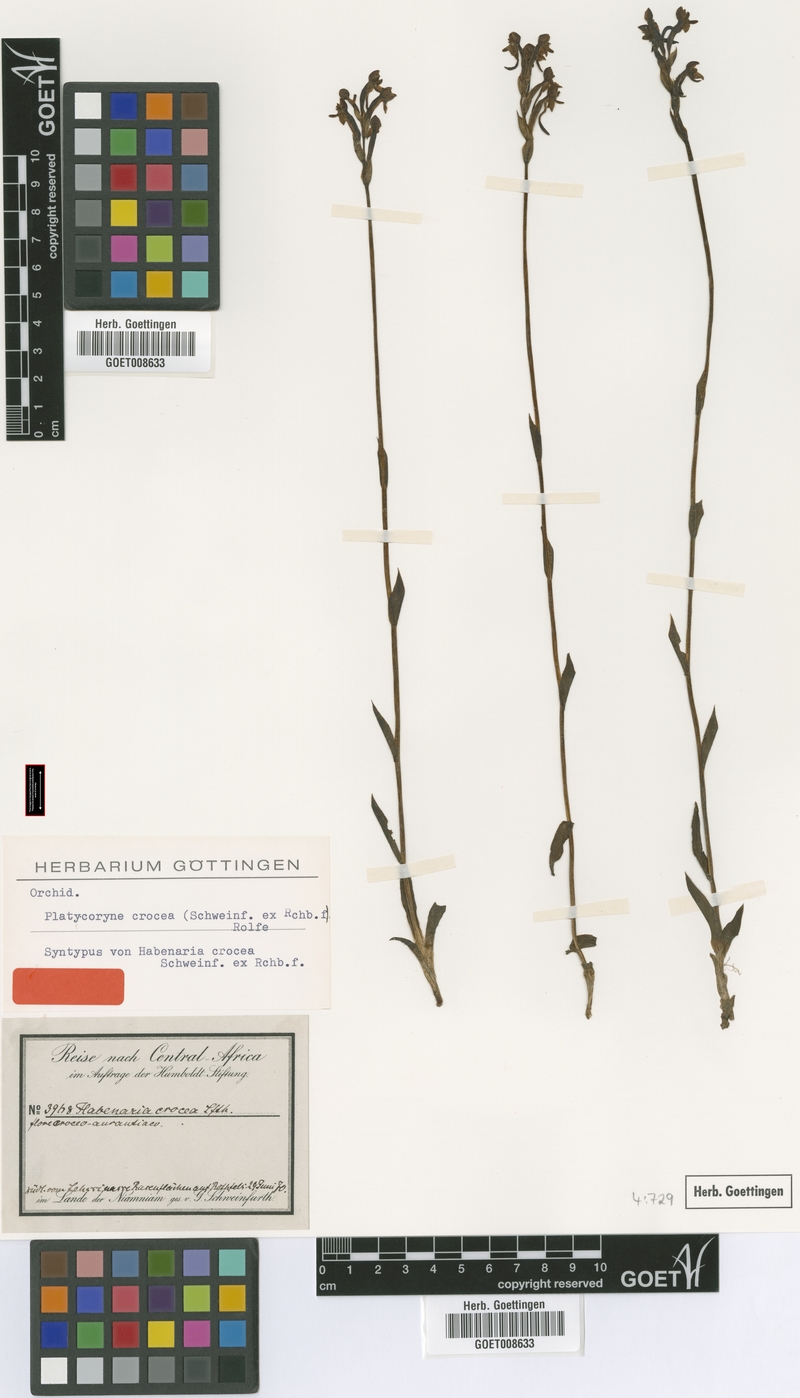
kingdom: Plantae
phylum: Tracheophyta
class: Liliopsida
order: Asparagales
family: Orchidaceae
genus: Platycoryne
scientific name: Platycoryne crocea
